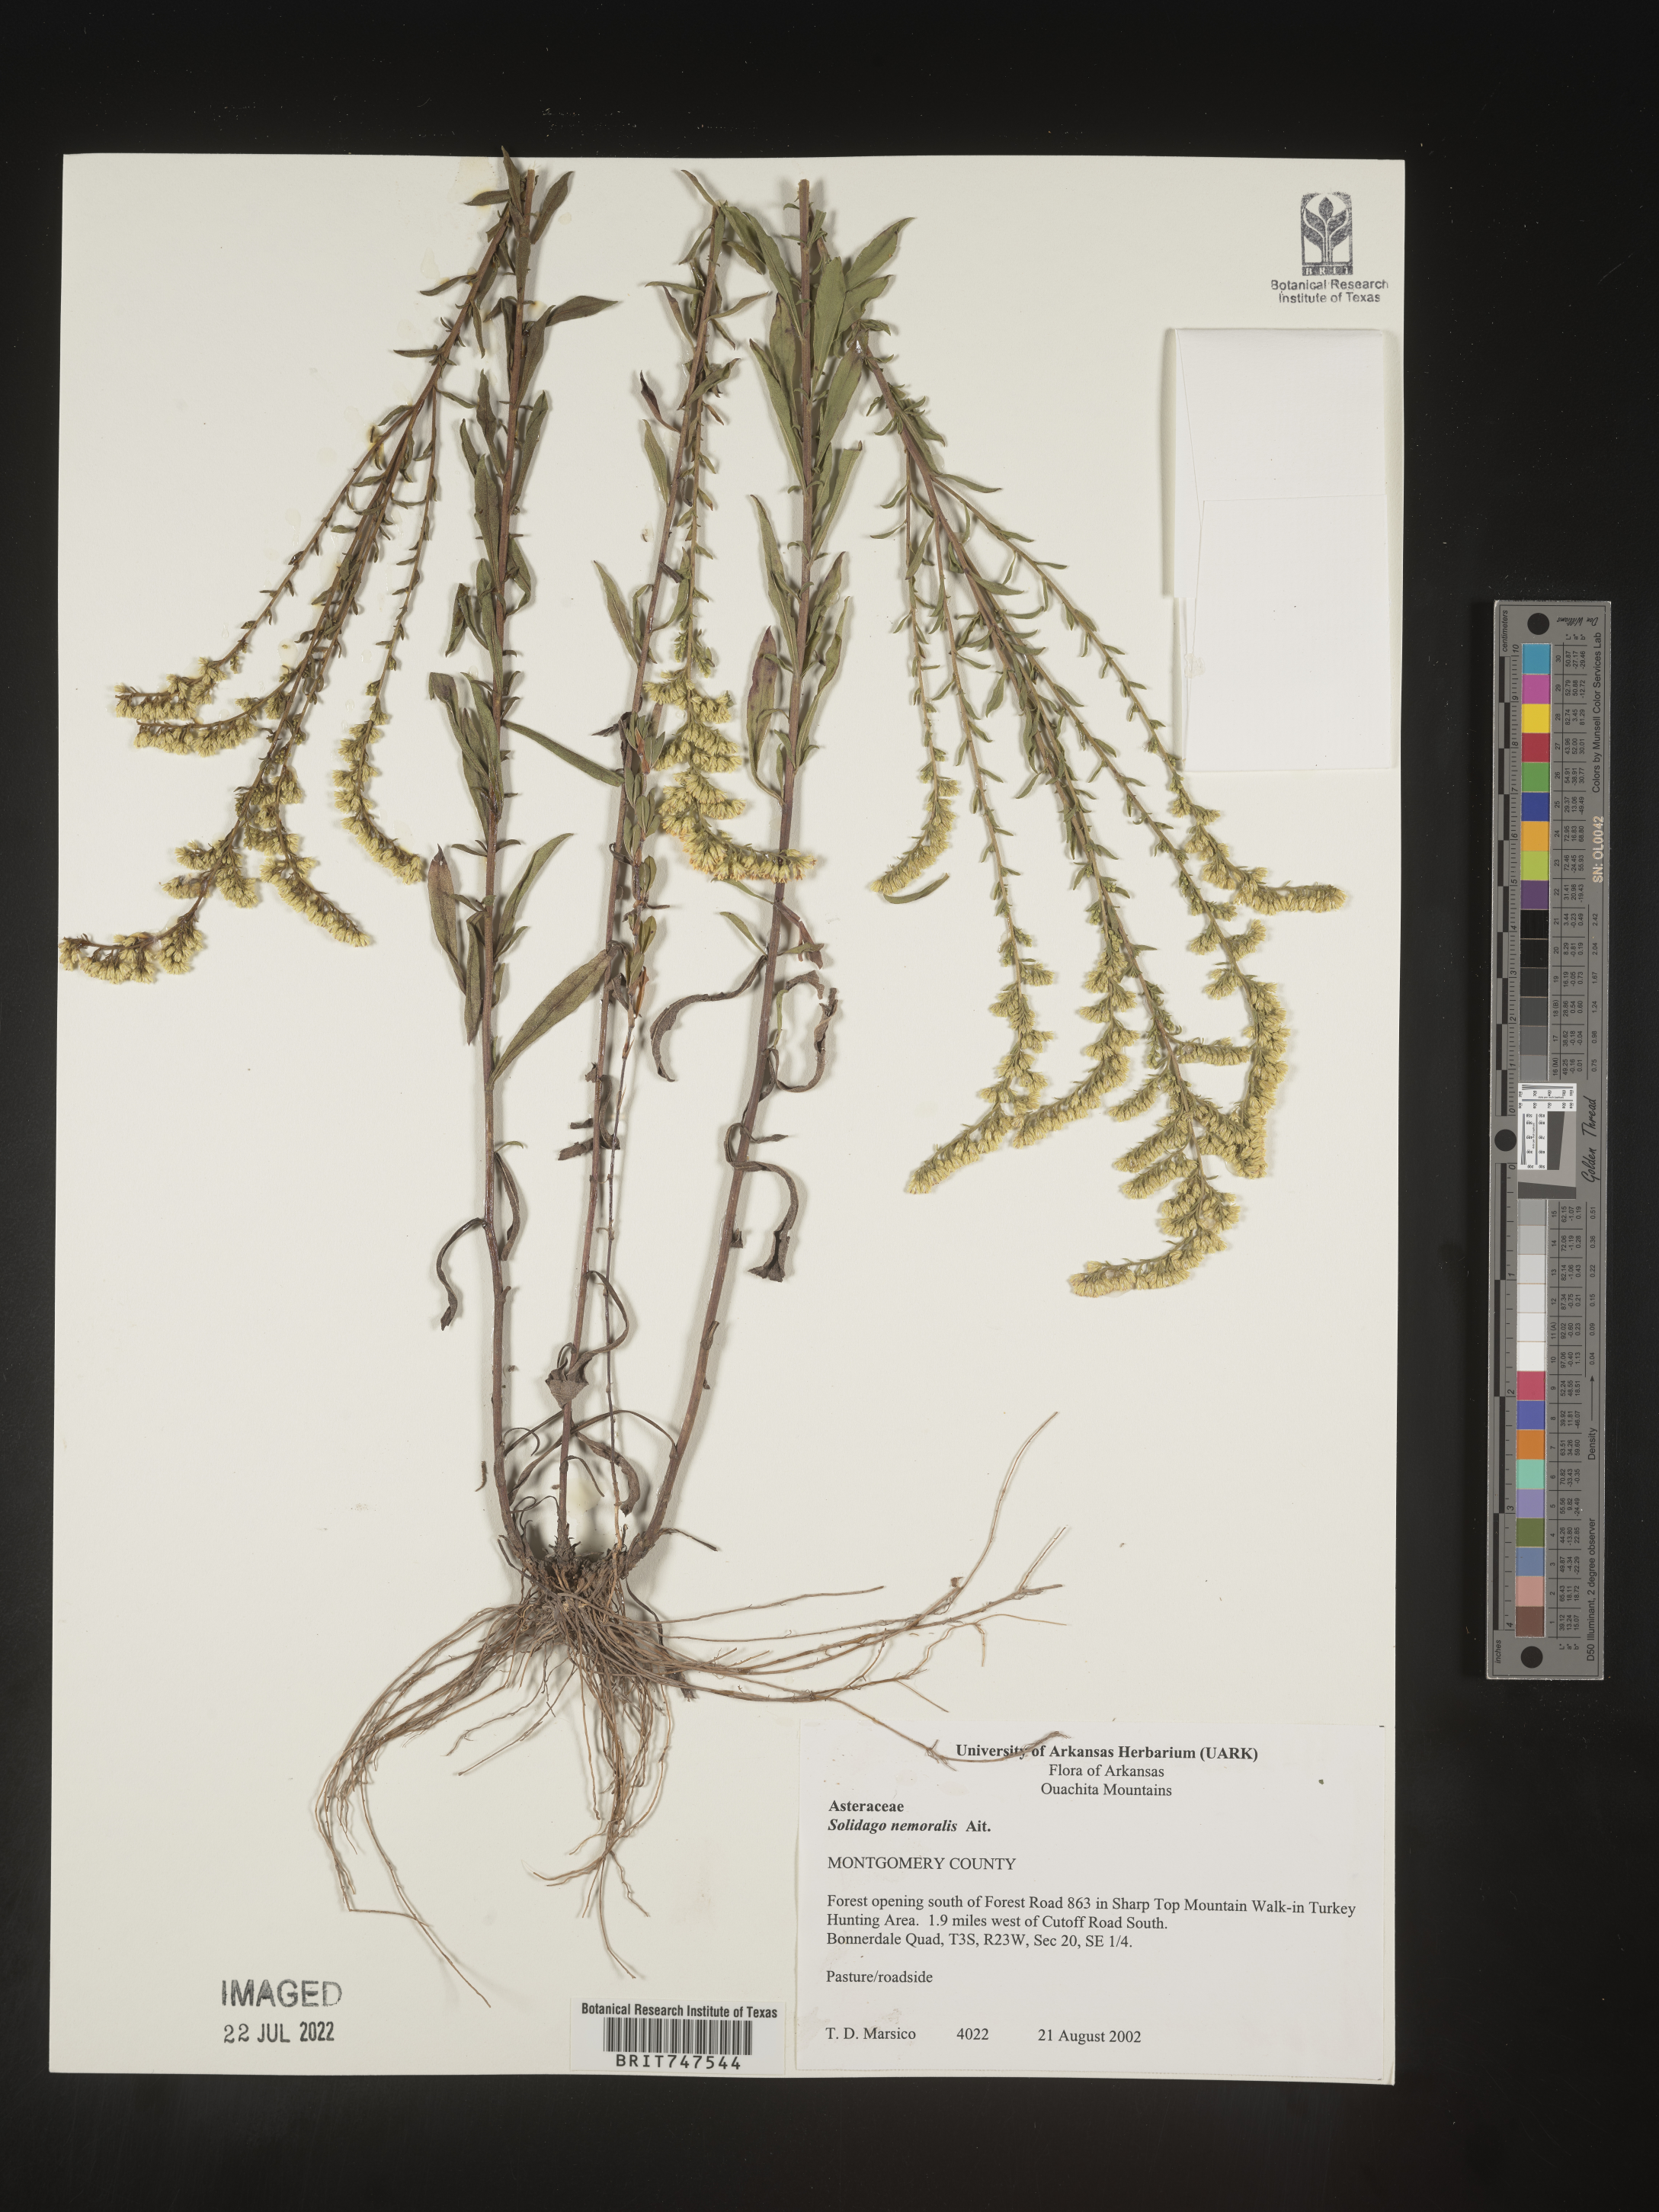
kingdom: Plantae
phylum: Tracheophyta
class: Magnoliopsida
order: Asterales
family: Asteraceae
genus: Solidago
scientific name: Solidago nemoralis
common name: Grey goldenrod
